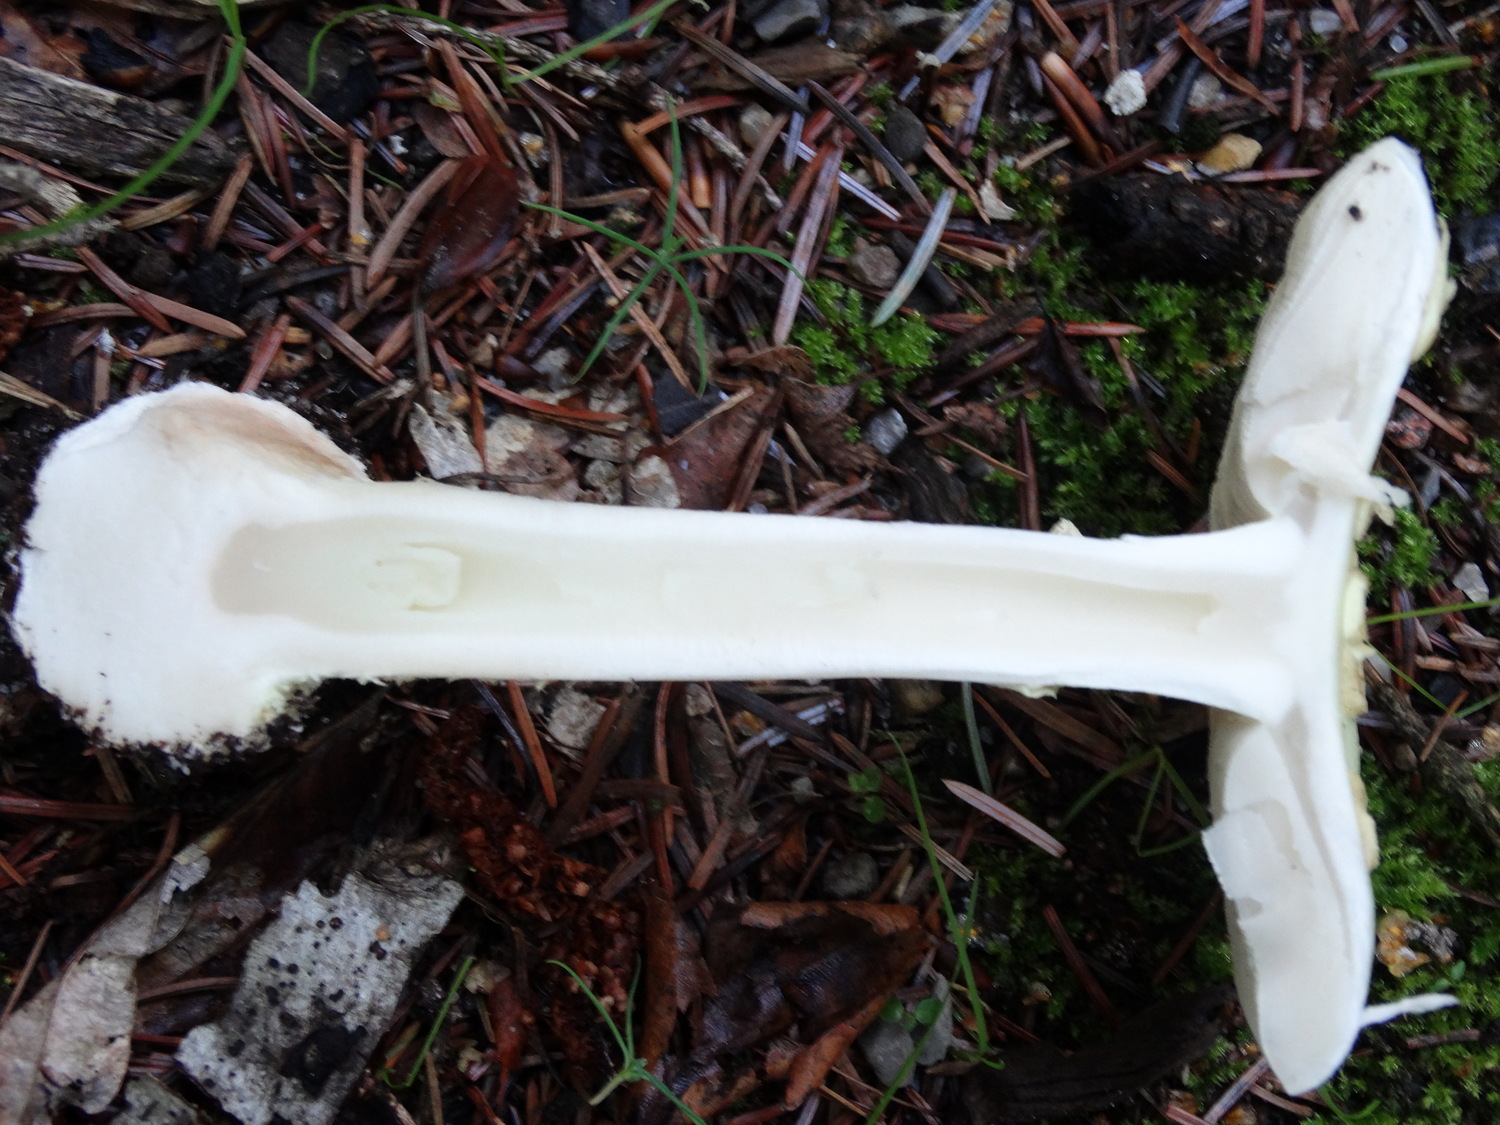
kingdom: Fungi
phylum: Basidiomycota
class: Agaricomycetes
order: Agaricales
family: Amanitaceae
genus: Amanita
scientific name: Amanita citrina
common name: kugleknoldet fluesvamp
